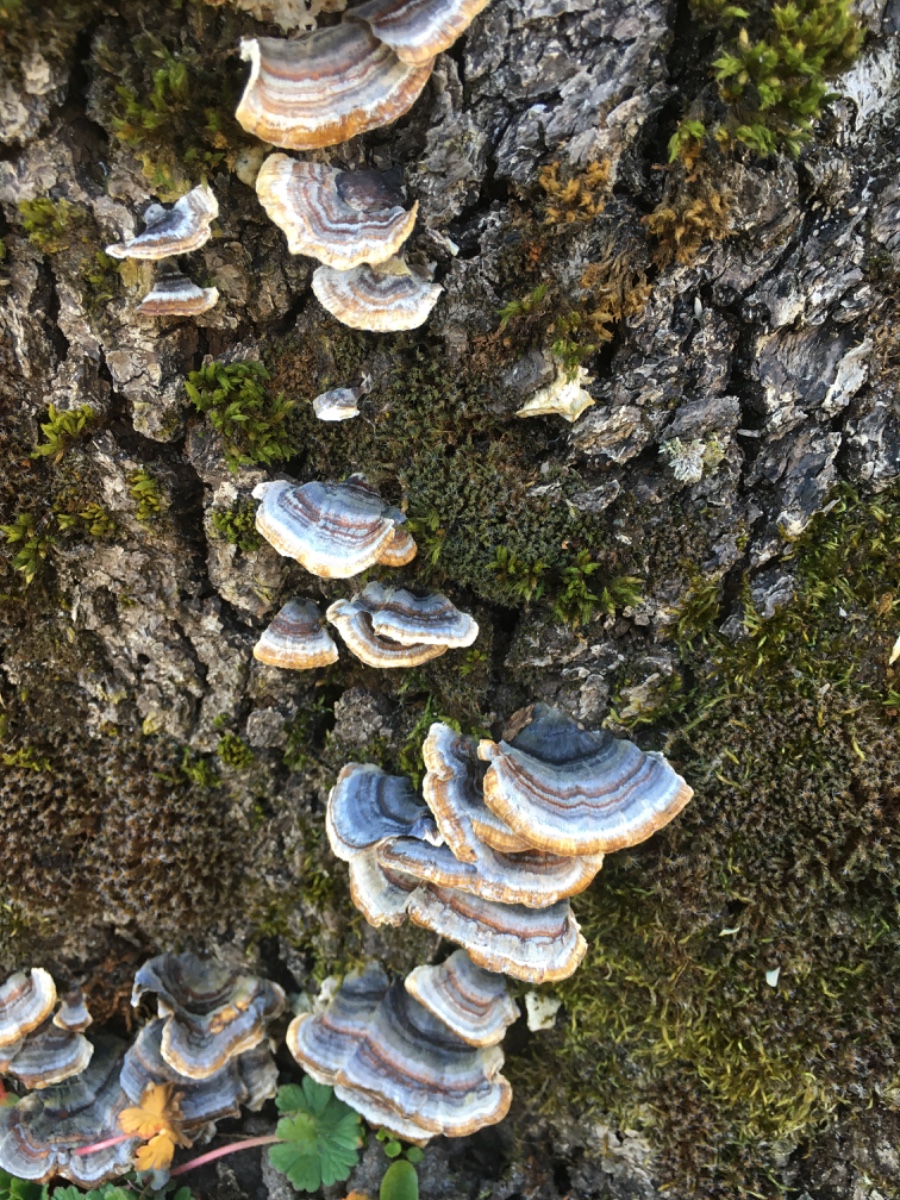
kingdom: Fungi
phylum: Basidiomycota
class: Agaricomycetes
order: Polyporales
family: Polyporaceae
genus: Trametes
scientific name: Trametes versicolor
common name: broget læderporesvamp
